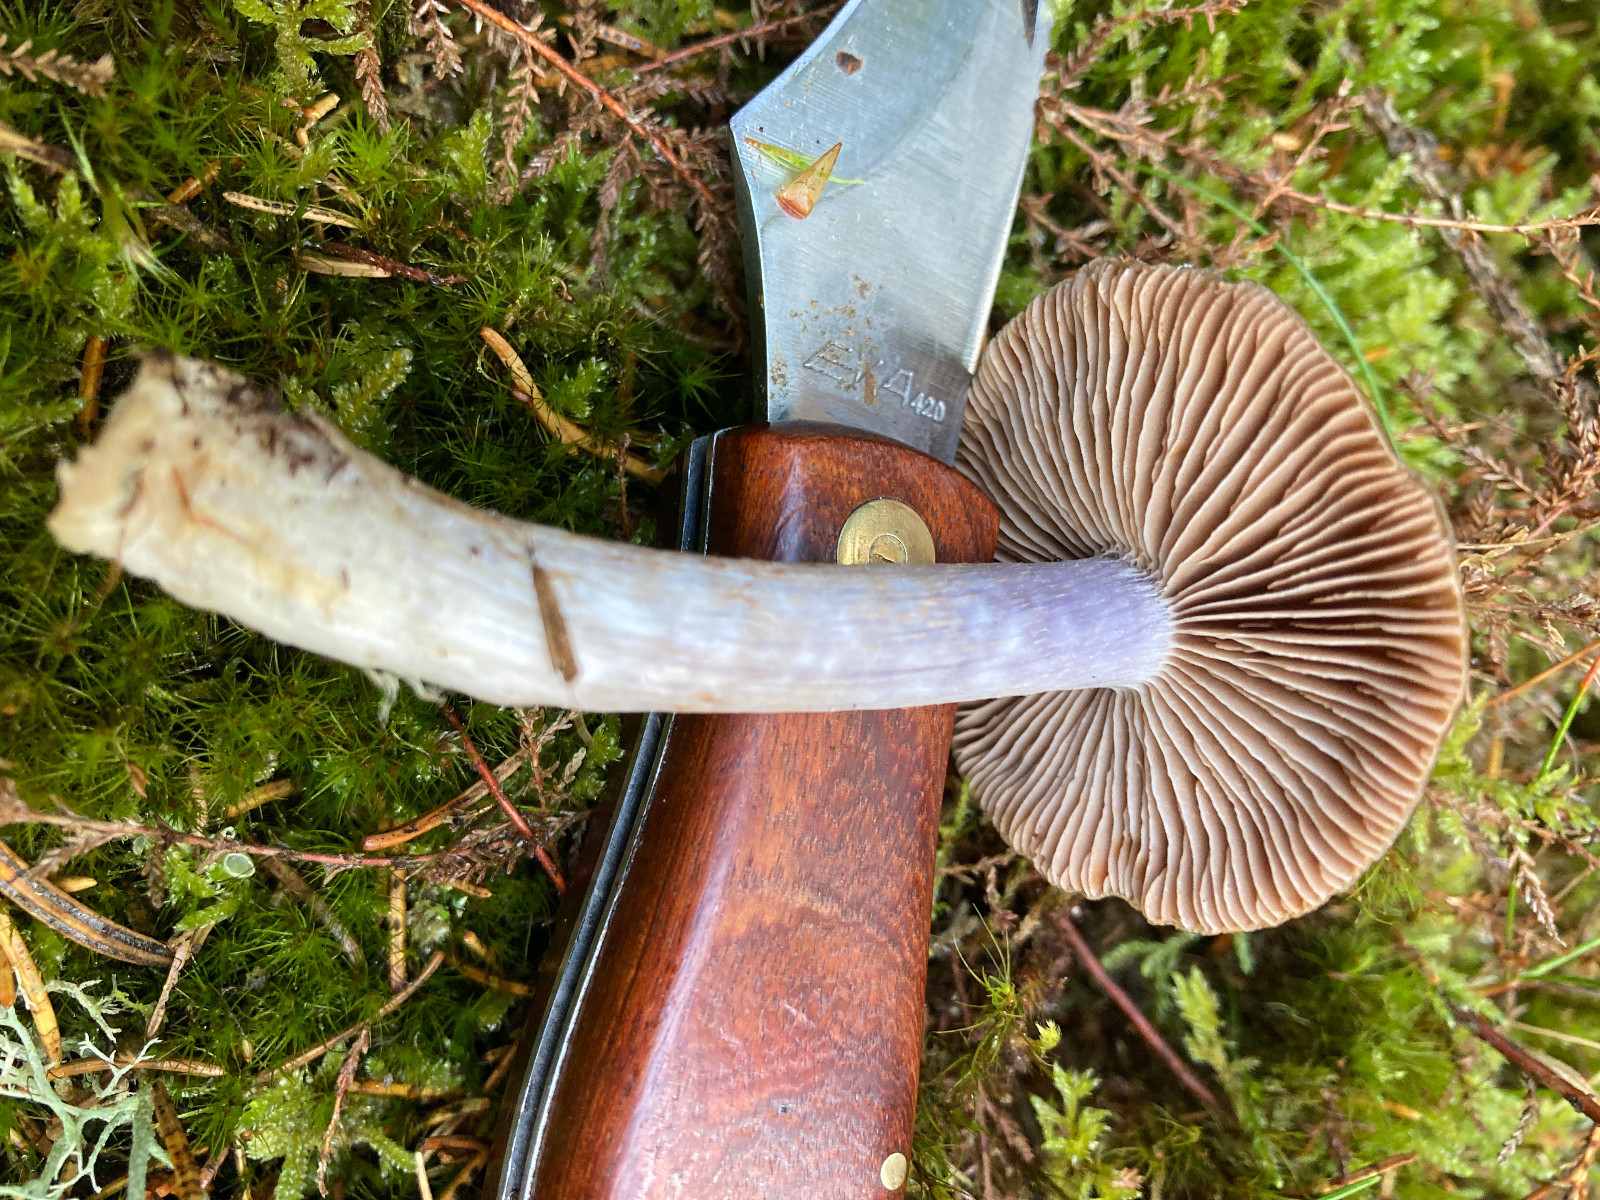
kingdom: Fungi
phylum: Basidiomycota
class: Agaricomycetes
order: Agaricales
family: Cortinariaceae
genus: Thaxterogaster
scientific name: Thaxterogaster
